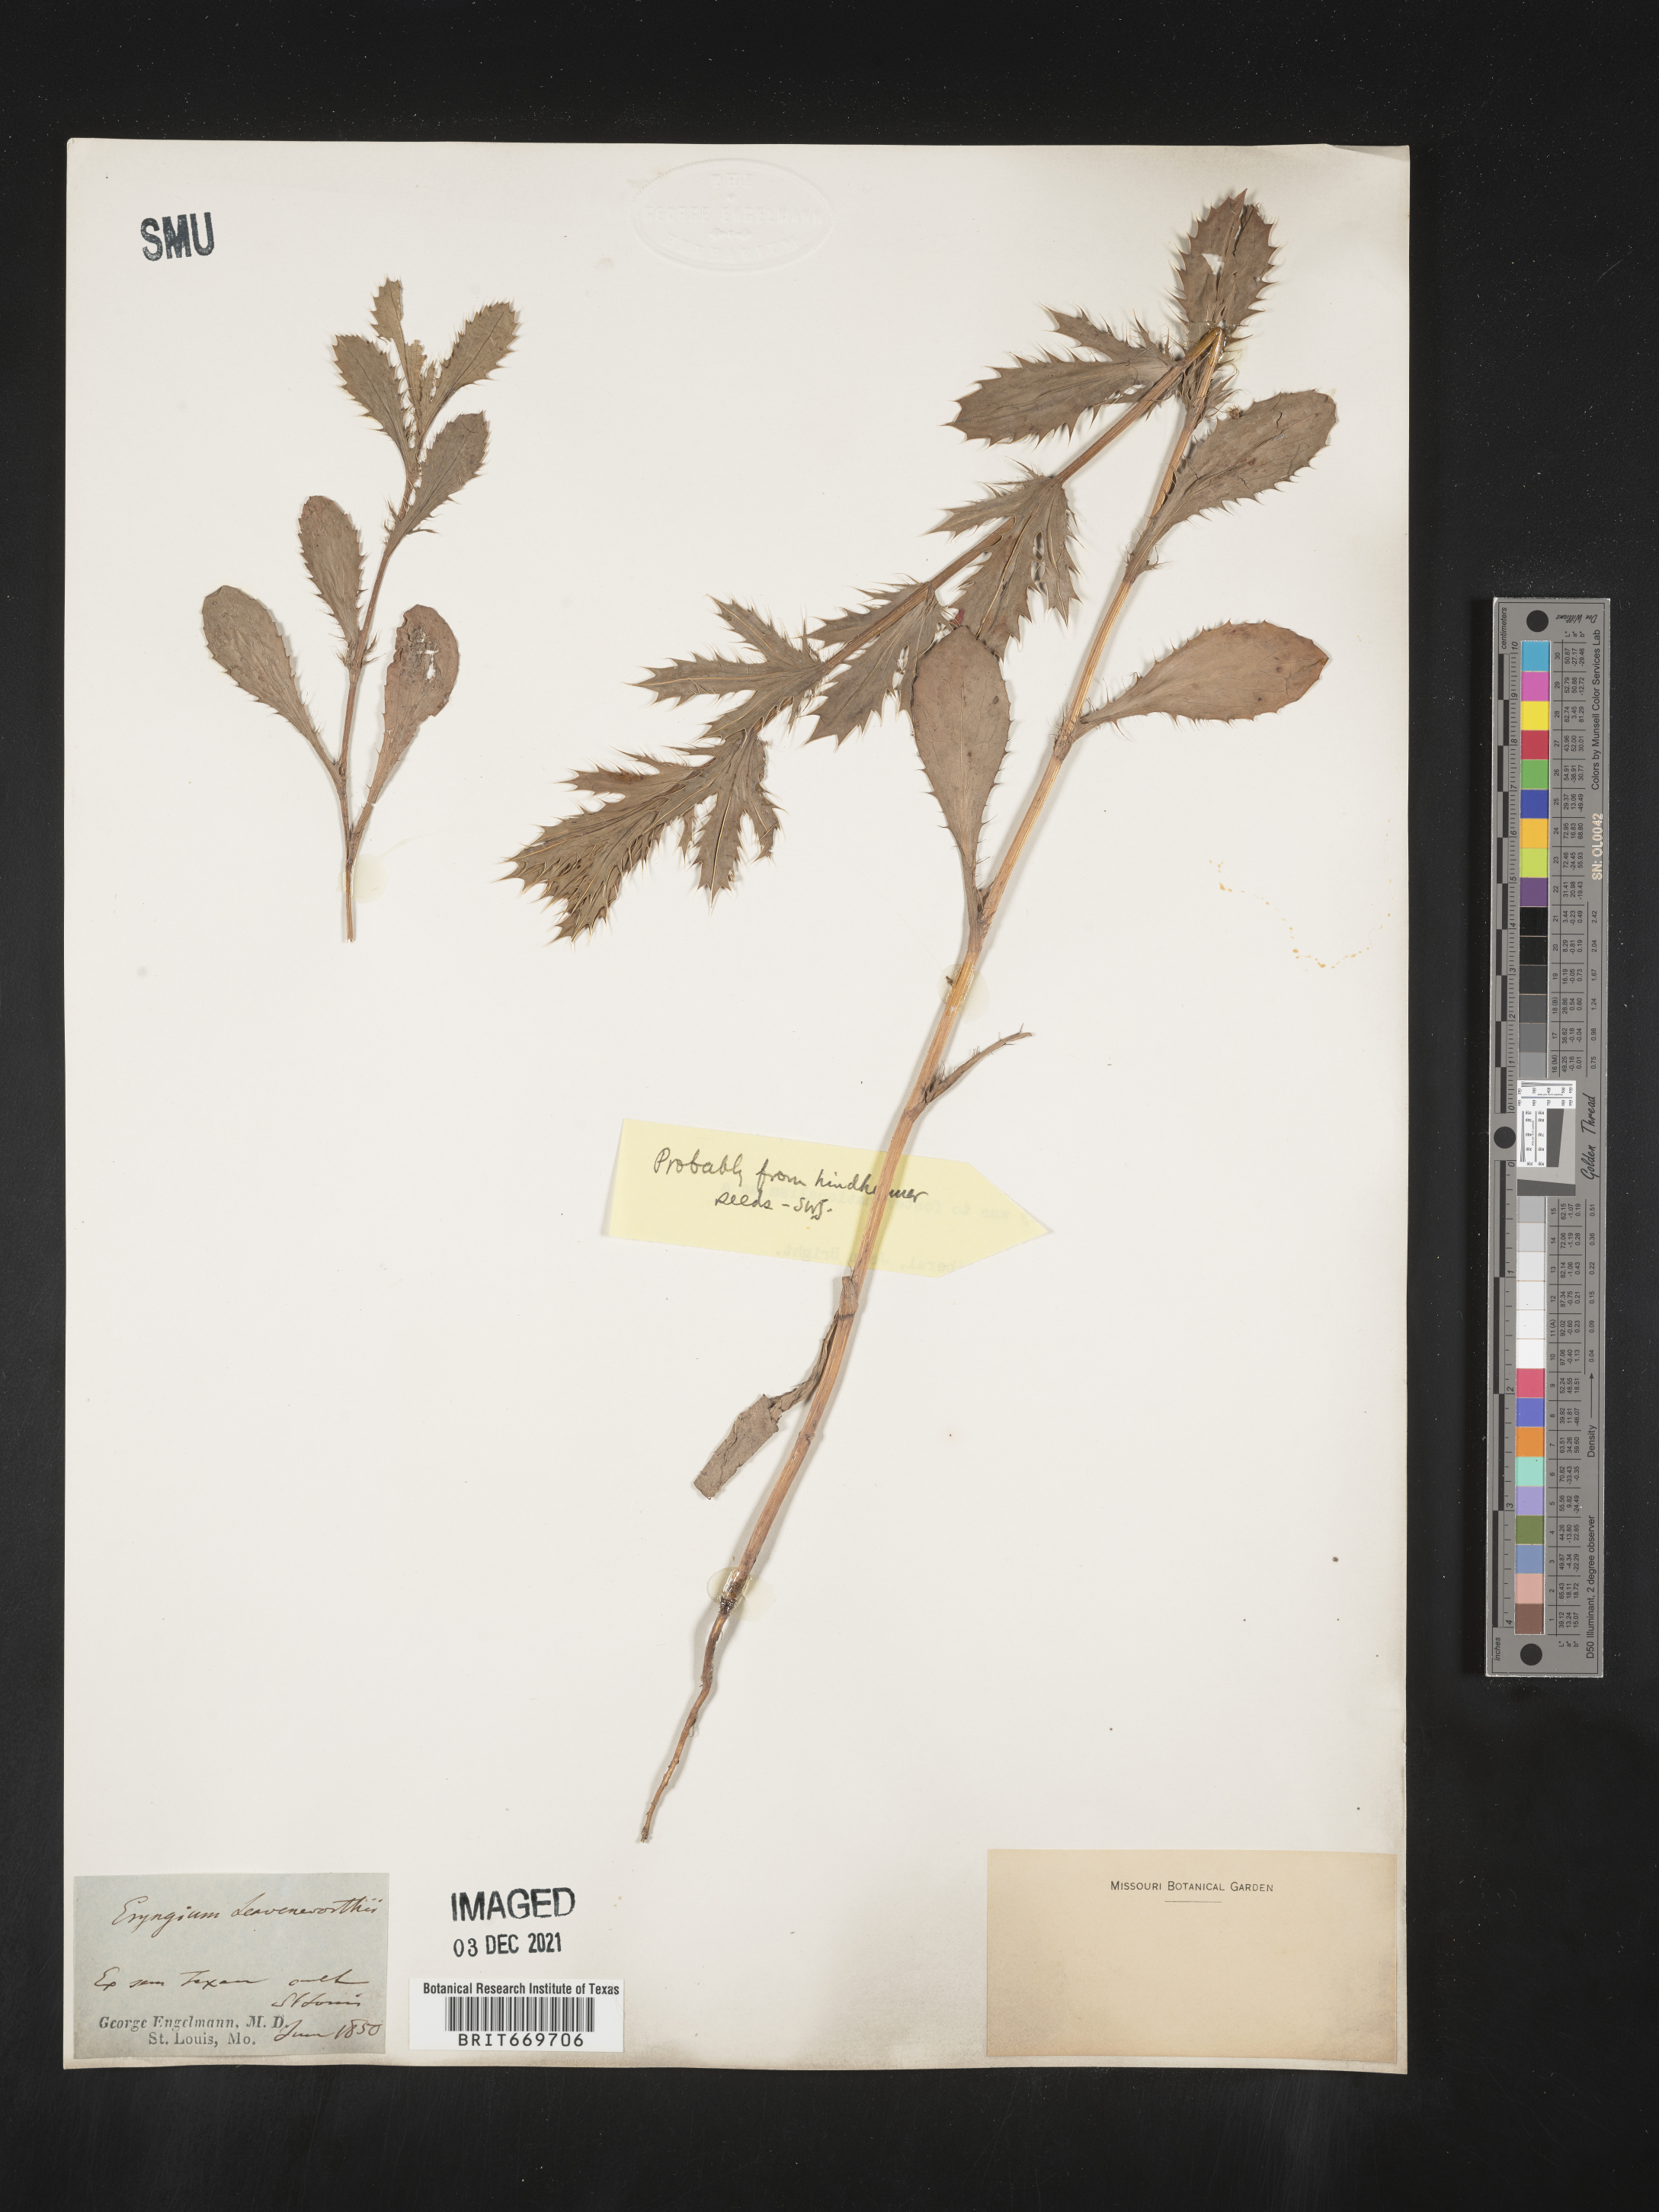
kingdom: Plantae
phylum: Tracheophyta
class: Magnoliopsida
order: Apiales
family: Apiaceae
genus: Eryngium
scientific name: Eryngium
